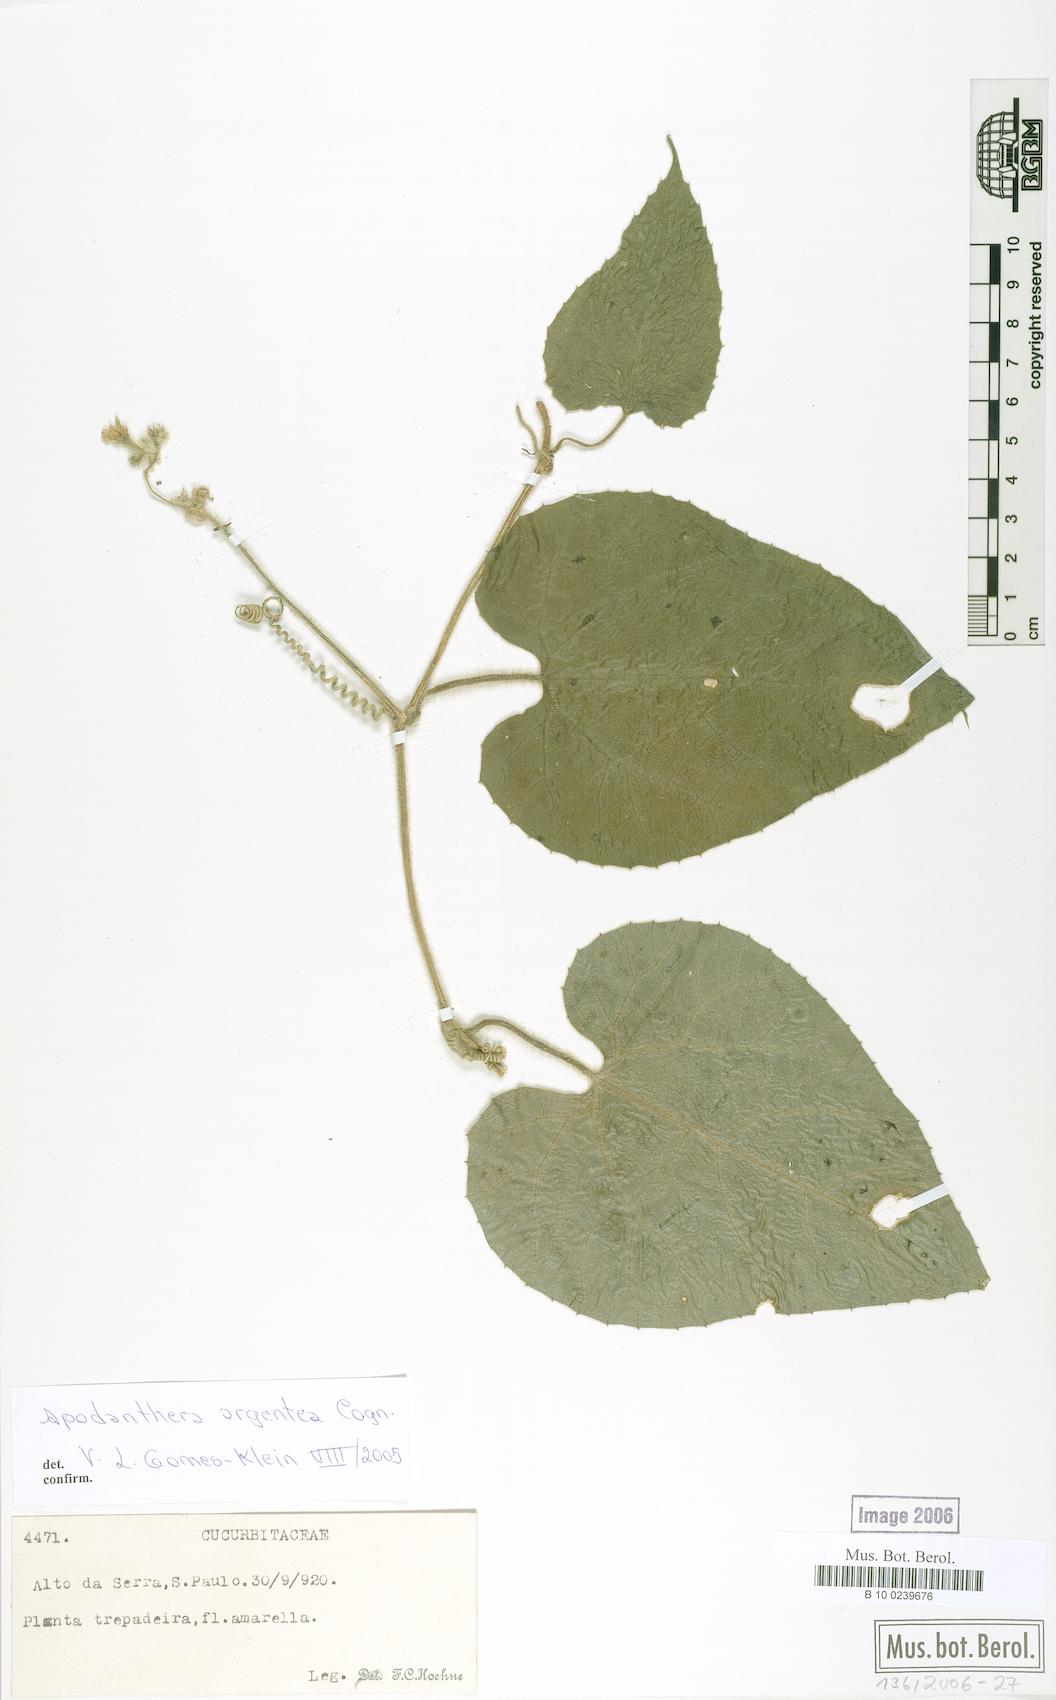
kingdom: Plantae
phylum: Tracheophyta
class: Magnoliopsida
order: Cucurbitales
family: Cucurbitaceae
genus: Apodanthera
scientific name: Apodanthera argentea
